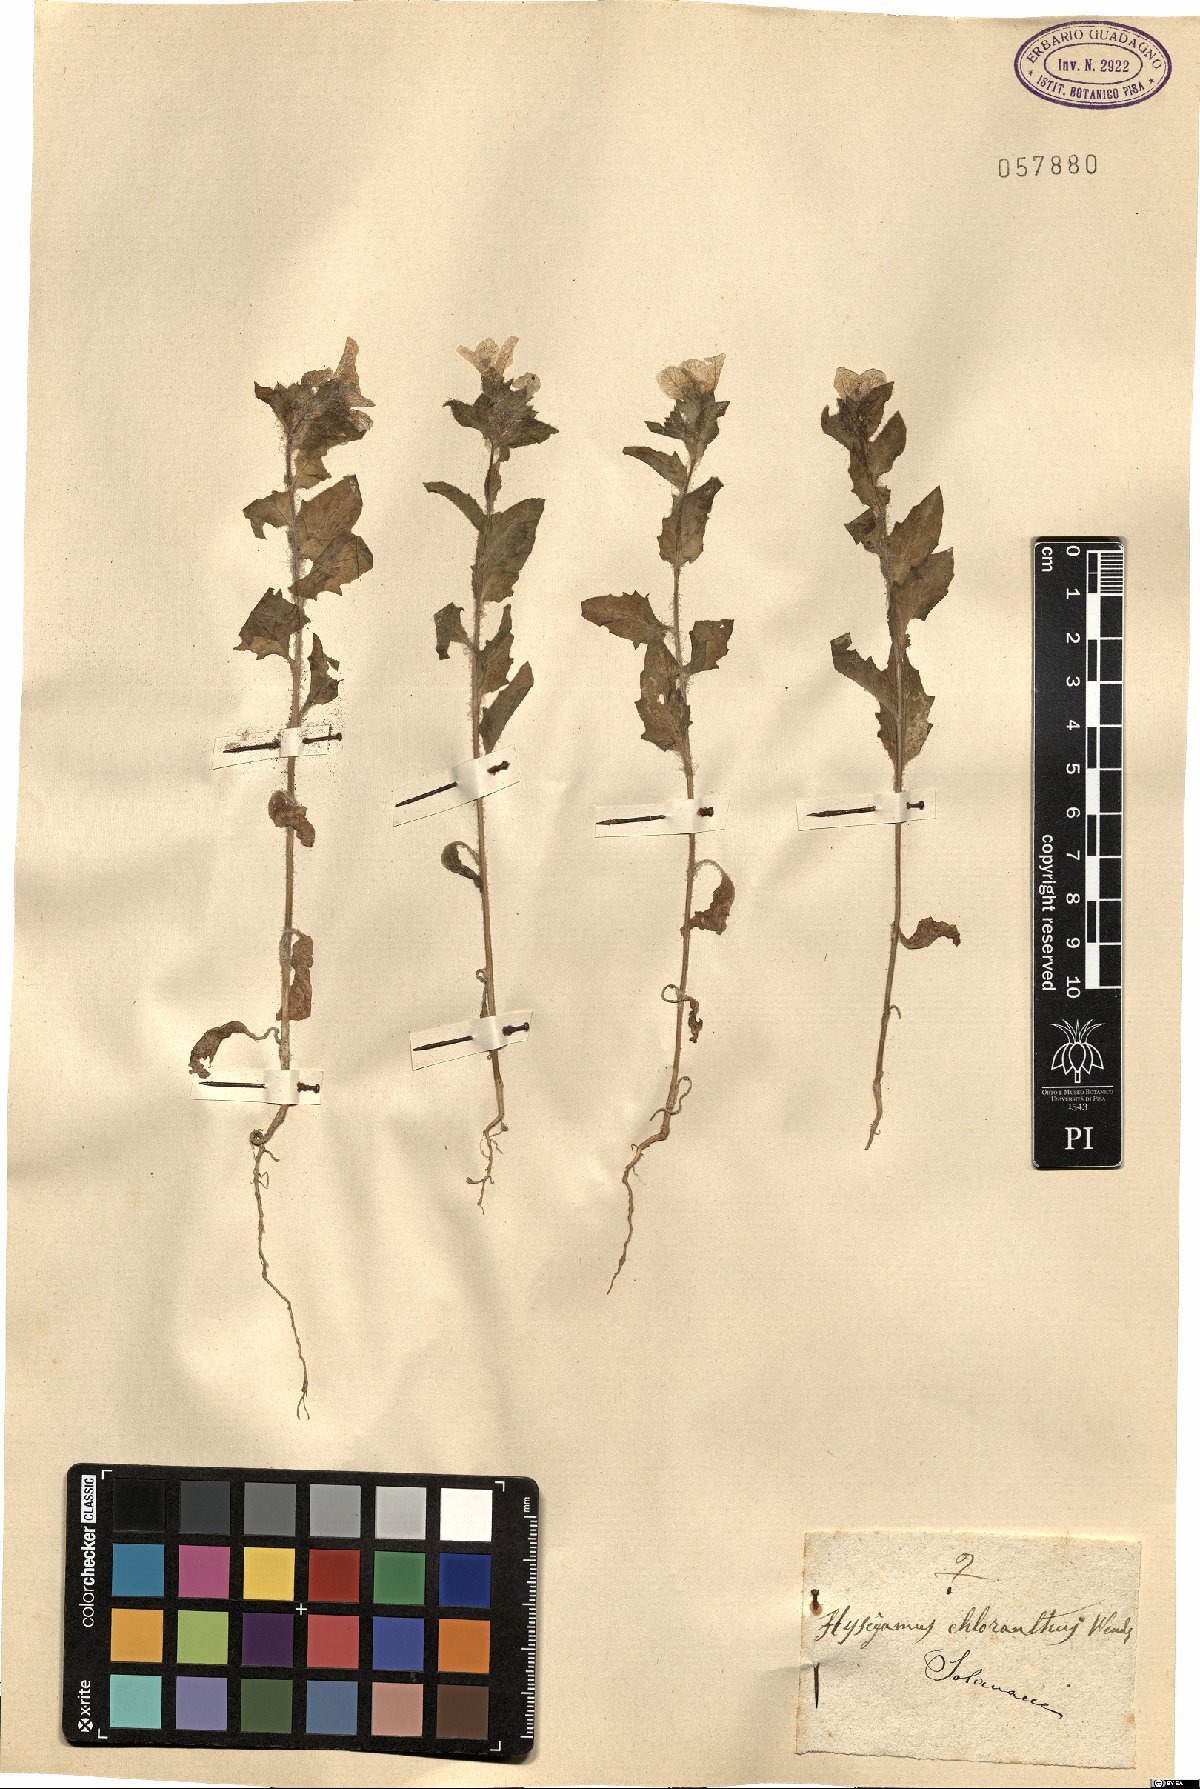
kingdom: Plantae
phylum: Tracheophyta
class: Magnoliopsida
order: Solanales
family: Solanaceae
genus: Scopolia
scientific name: Scopolia carniolica
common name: Scopolia
